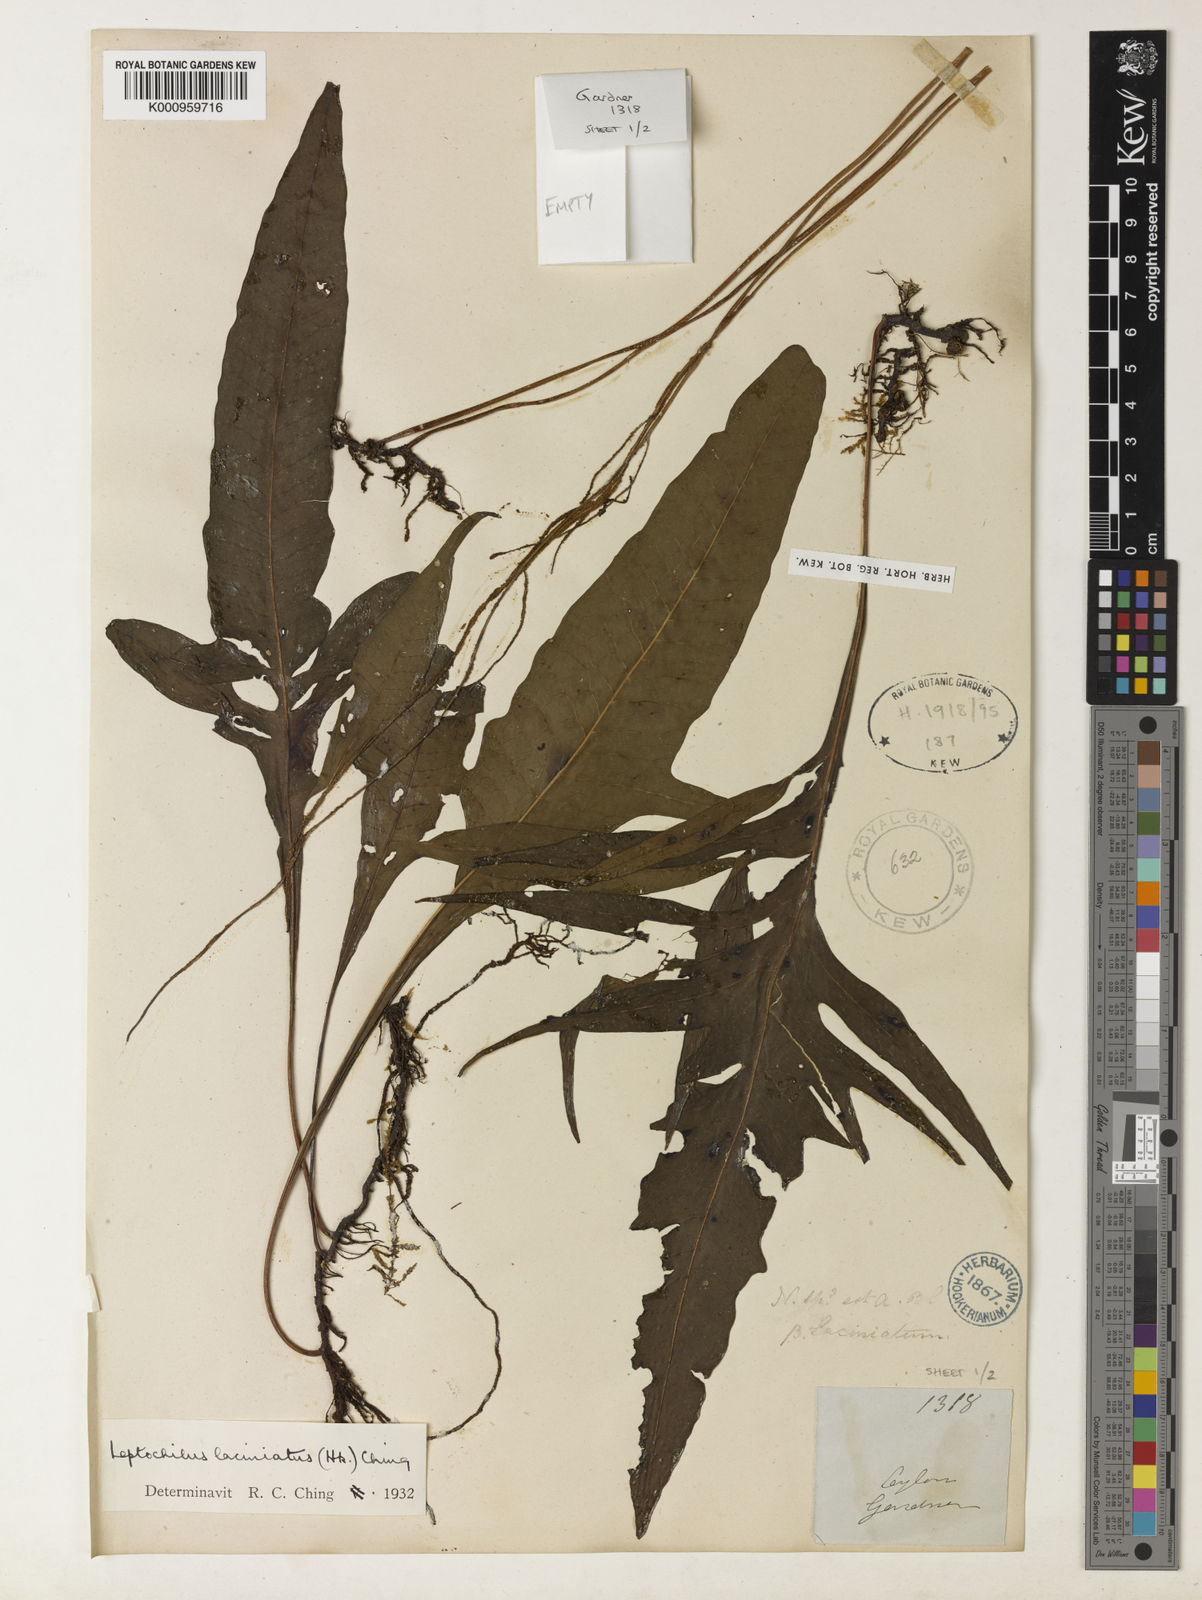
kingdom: Plantae
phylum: Tracheophyta
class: Polypodiopsida
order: Polypodiales
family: Polypodiaceae
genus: Leptochilus
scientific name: Leptochilus decurrens
